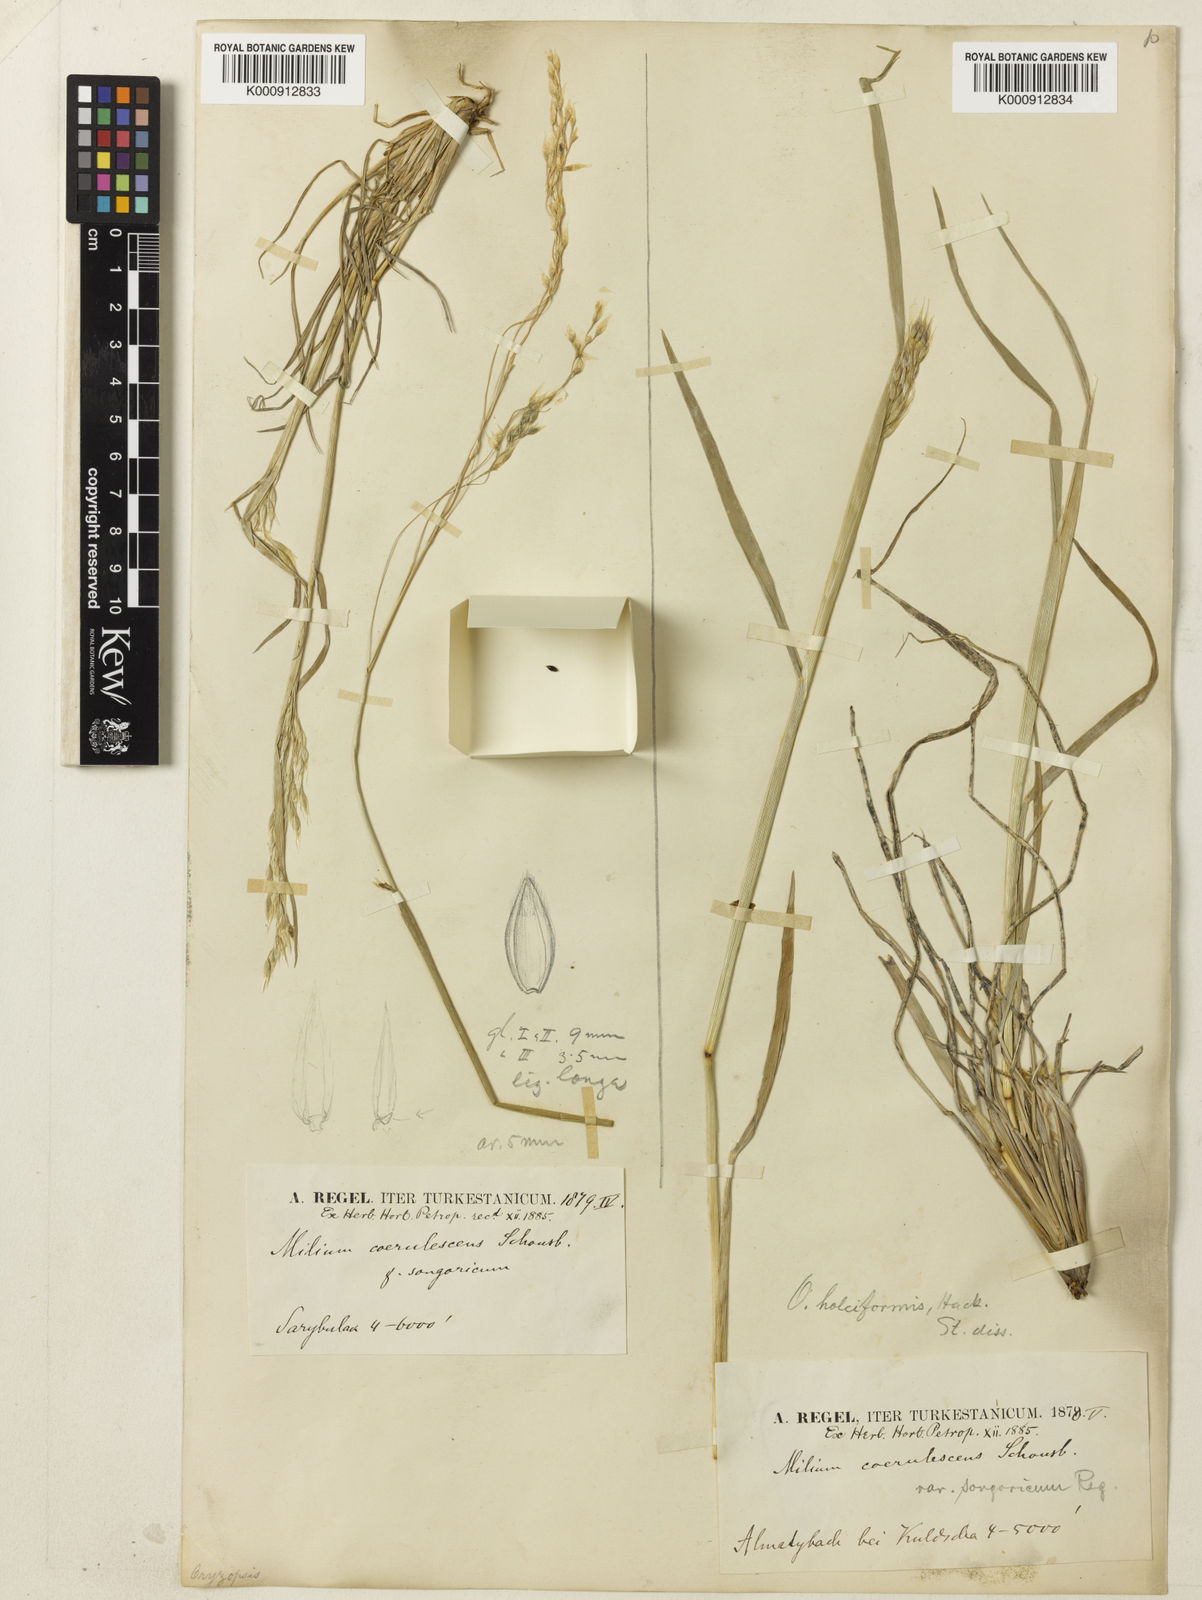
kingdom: Plantae
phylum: Tracheophyta
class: Liliopsida
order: Poales
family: Poaceae
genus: Piptatherum
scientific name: Piptatherum songaricum
